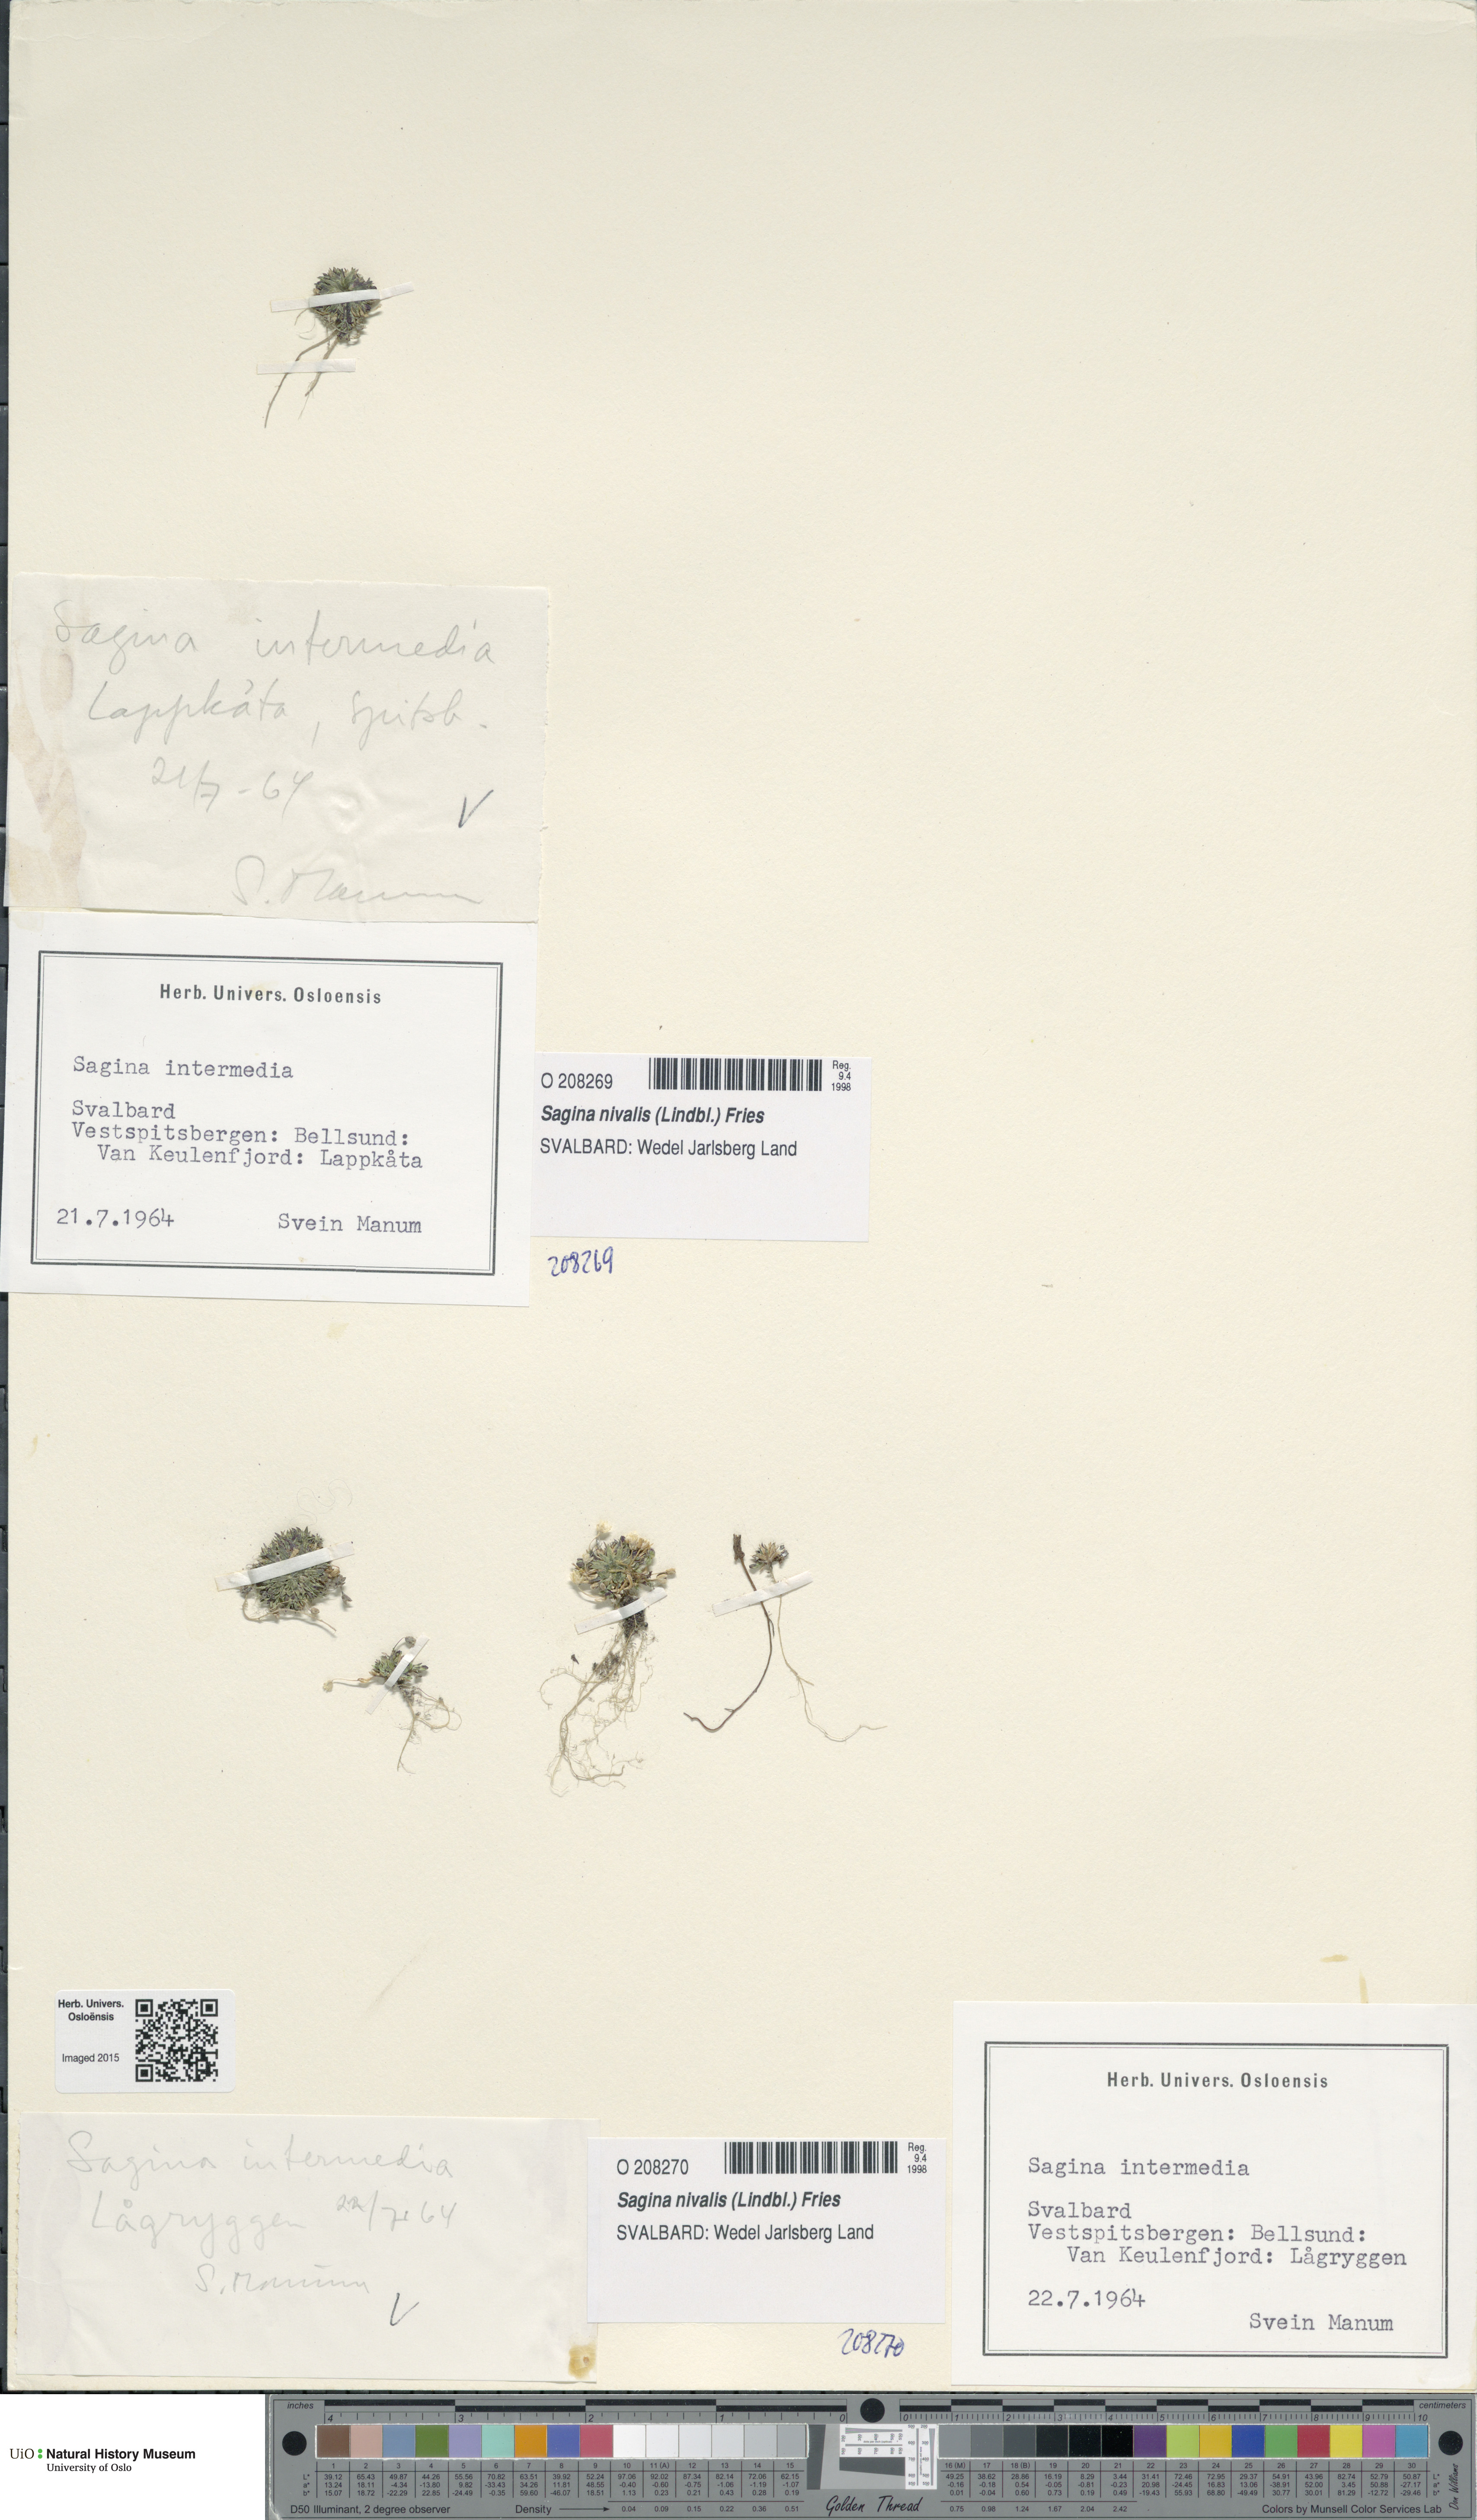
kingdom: Plantae
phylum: Tracheophyta
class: Magnoliopsida
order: Caryophyllales
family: Caryophyllaceae
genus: Sagina
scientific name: Sagina nivalis
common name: Snow pearlwort
